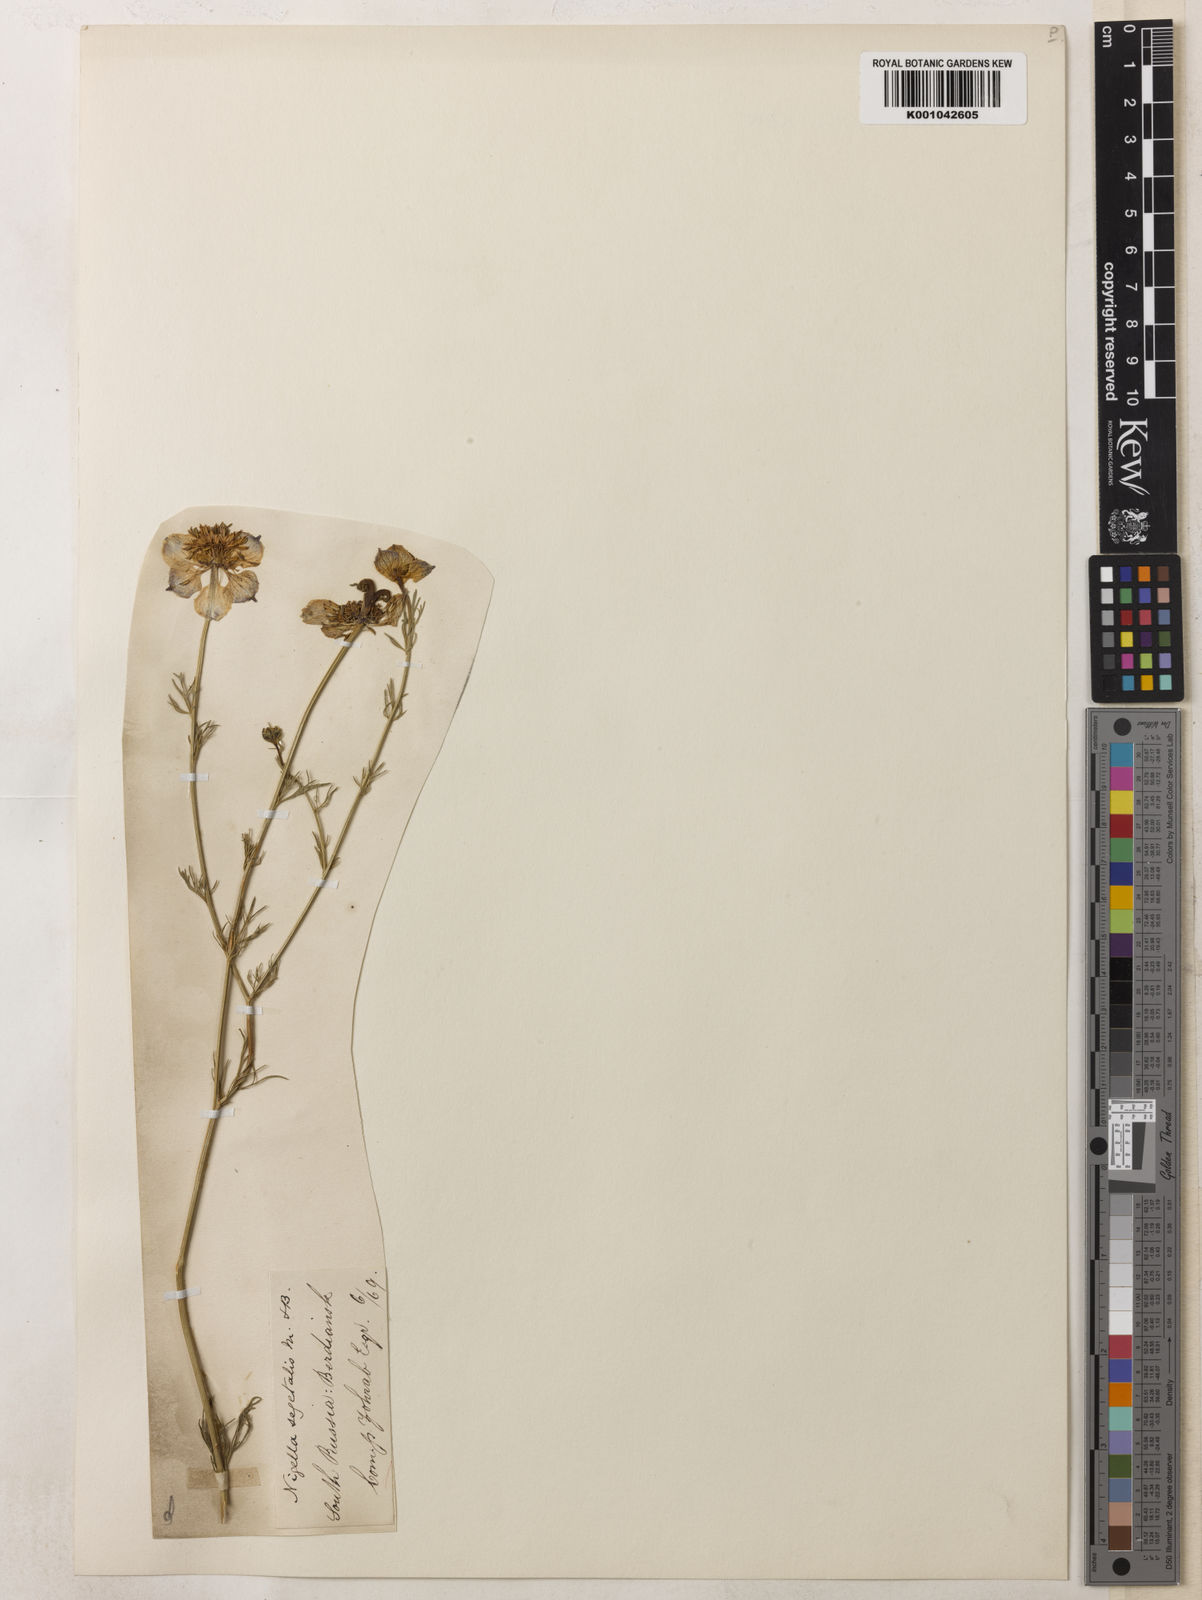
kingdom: Plantae
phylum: Tracheophyta
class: Magnoliopsida
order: Ranunculales
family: Ranunculaceae
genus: Nigella
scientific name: Nigella arvensis
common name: Wild fennel-flower
